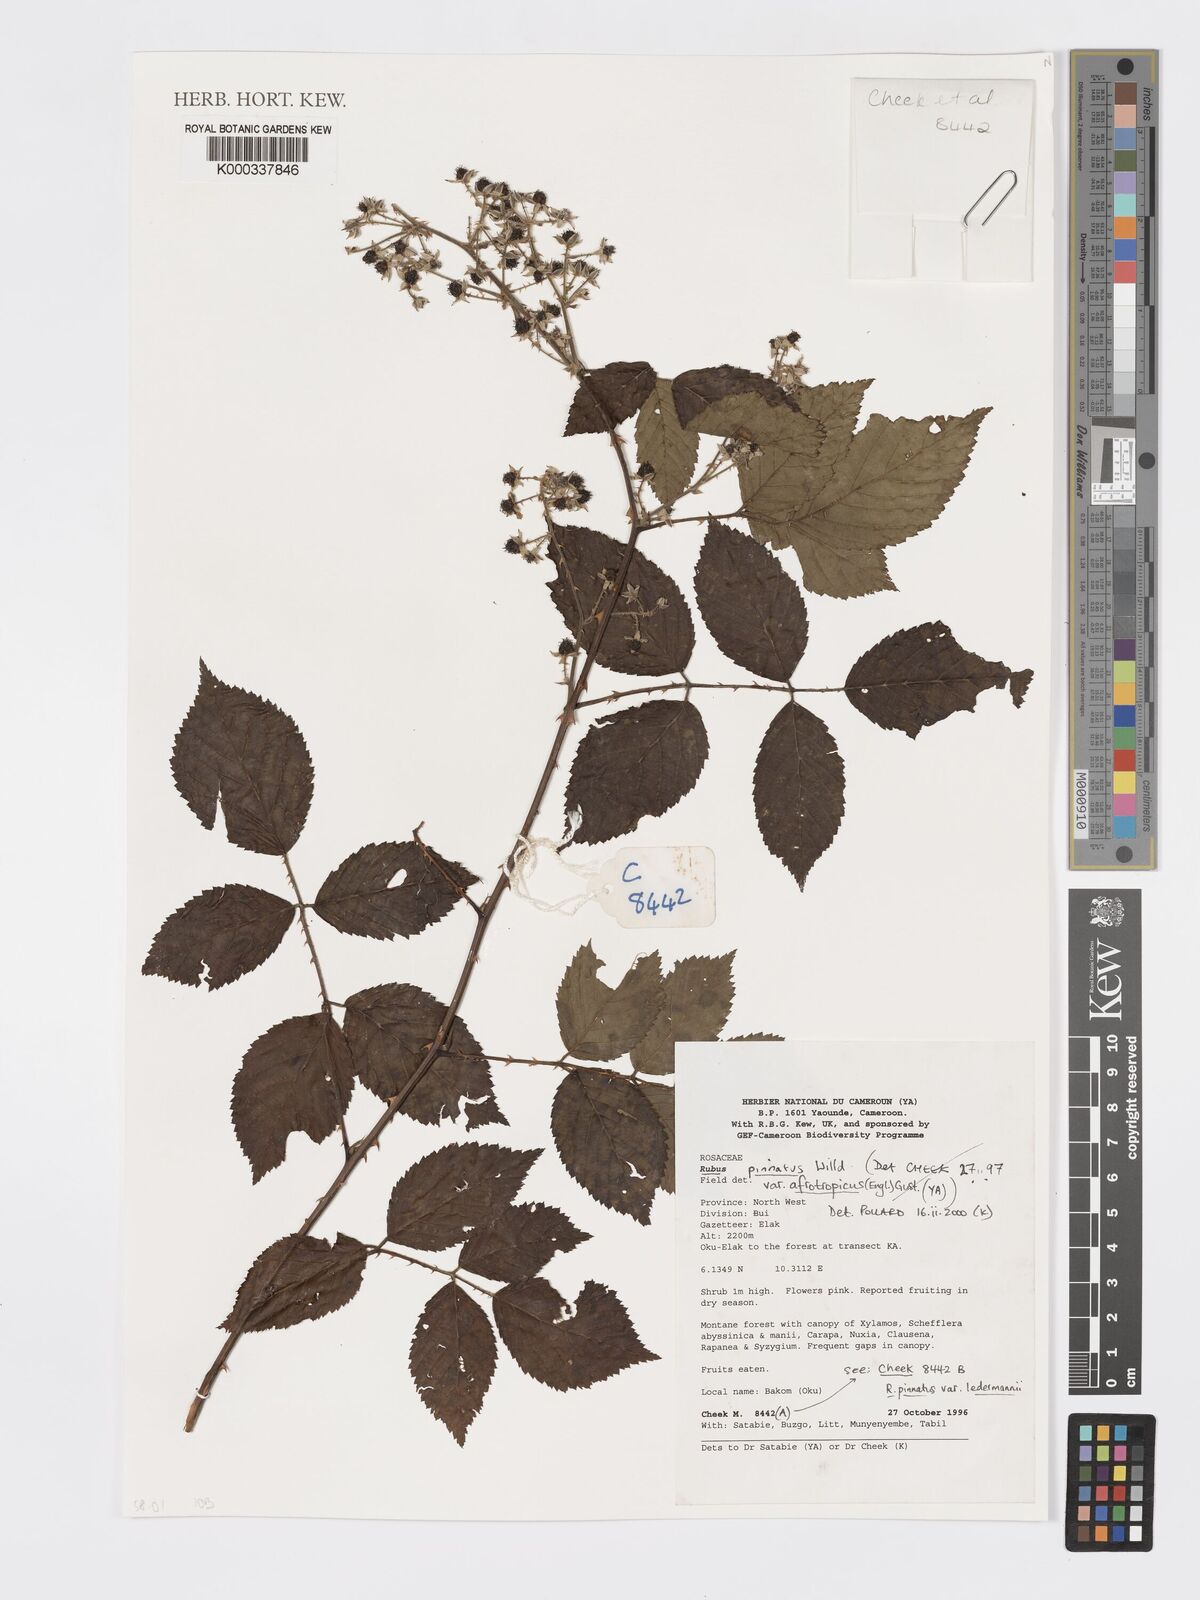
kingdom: Plantae
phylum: Tracheophyta
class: Magnoliopsida
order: Rosales
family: Rosaceae
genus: Rubus
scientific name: Rubus pinnatus
